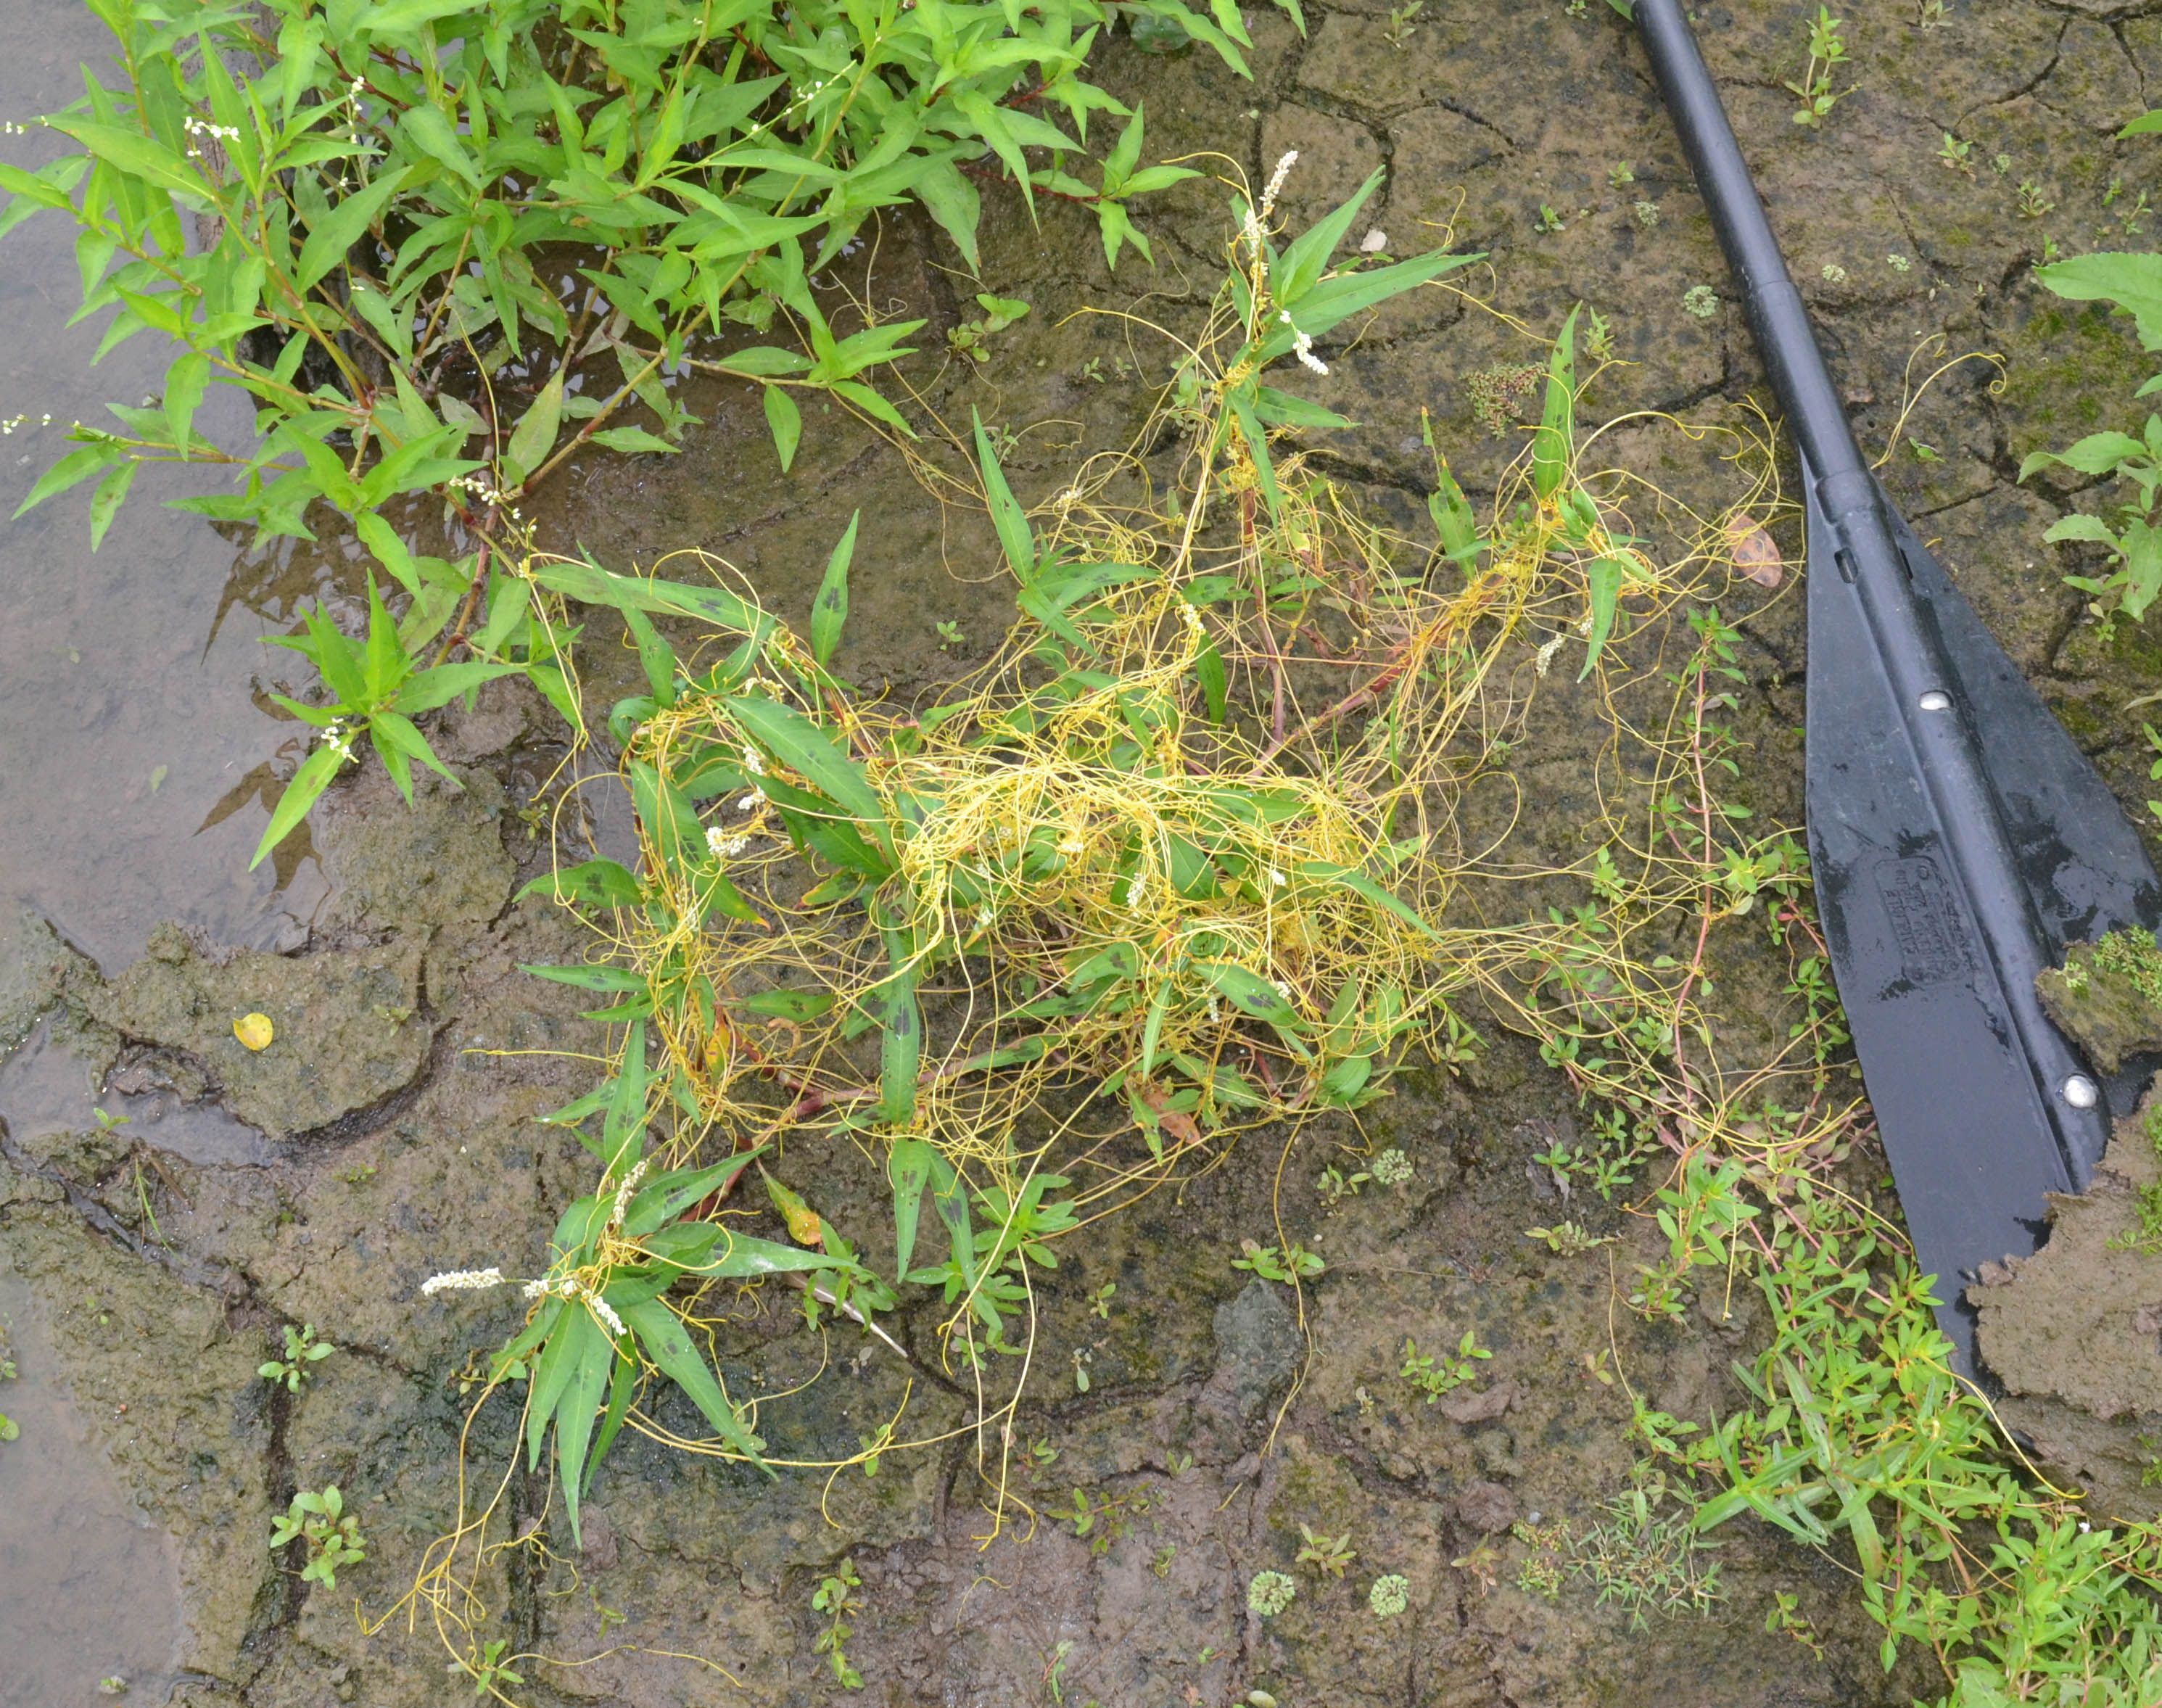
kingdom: Plantae
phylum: Tracheophyta
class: Magnoliopsida
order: Solanales
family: Convolvulaceae
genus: Cuscuta
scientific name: Cuscuta campestris
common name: Yellow dodder
